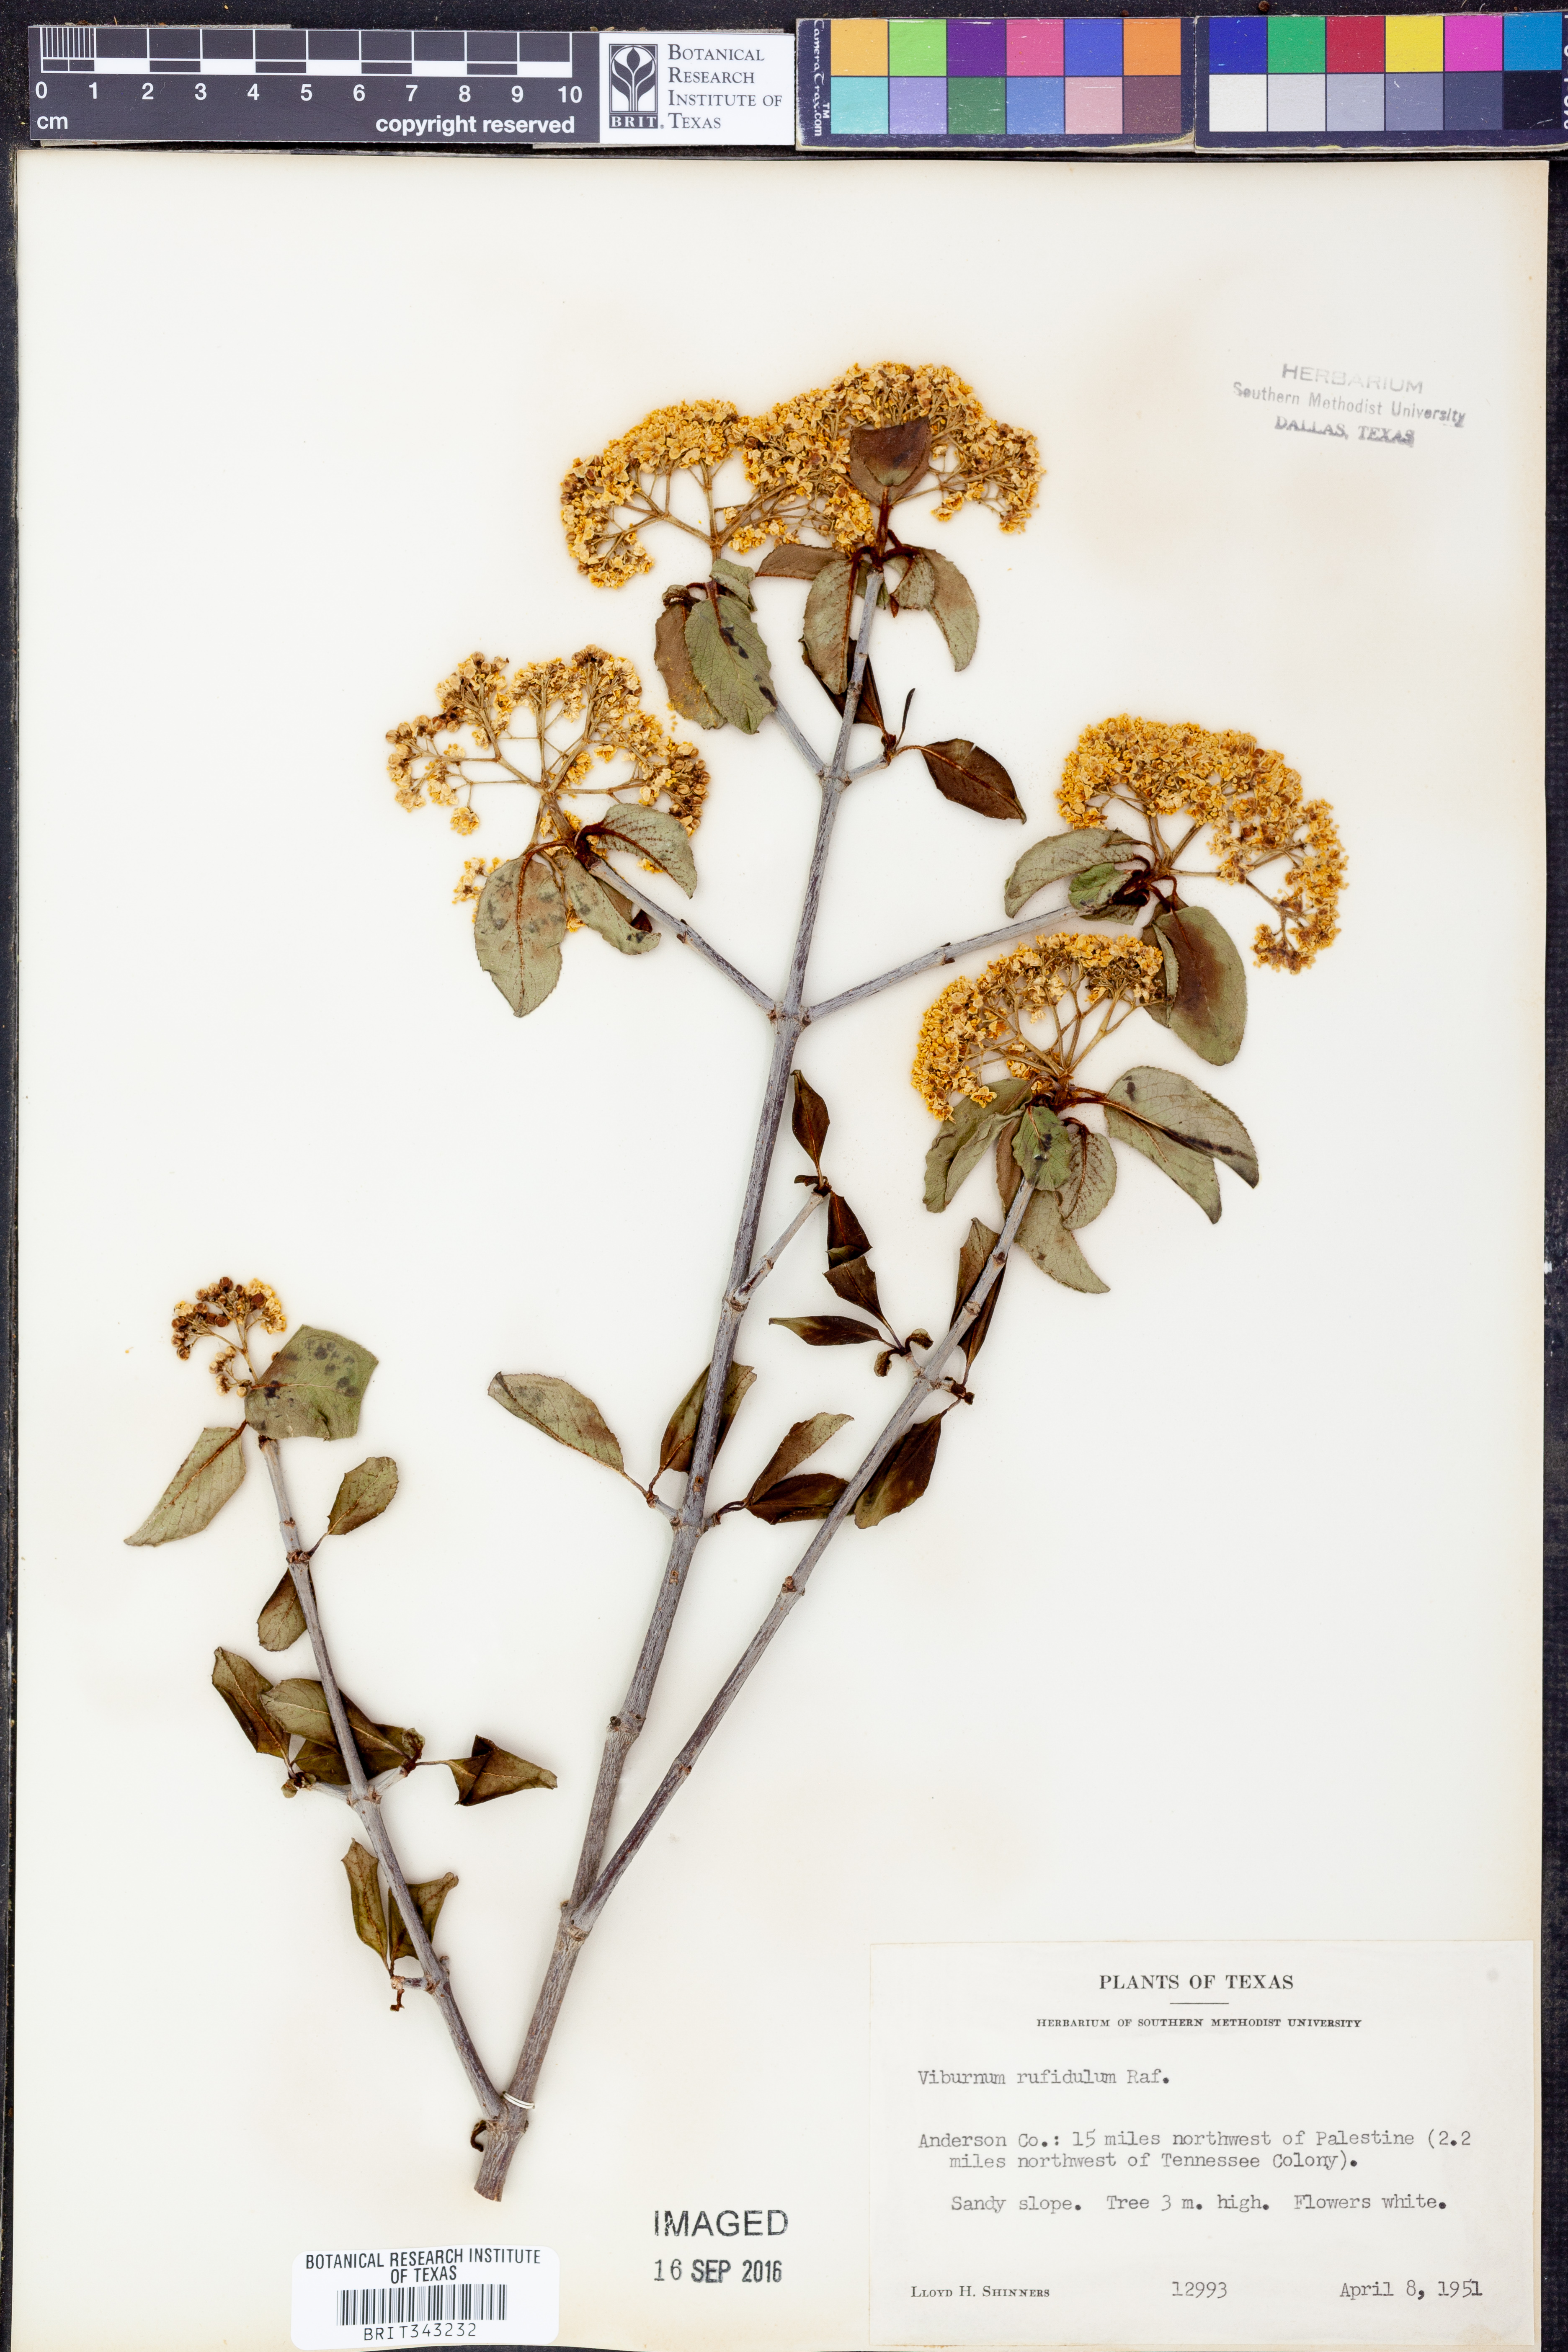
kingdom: Plantae
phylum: Tracheophyta
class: Magnoliopsida
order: Dipsacales
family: Viburnaceae
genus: Viburnum
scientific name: Viburnum rufidulum
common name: Blue haw
